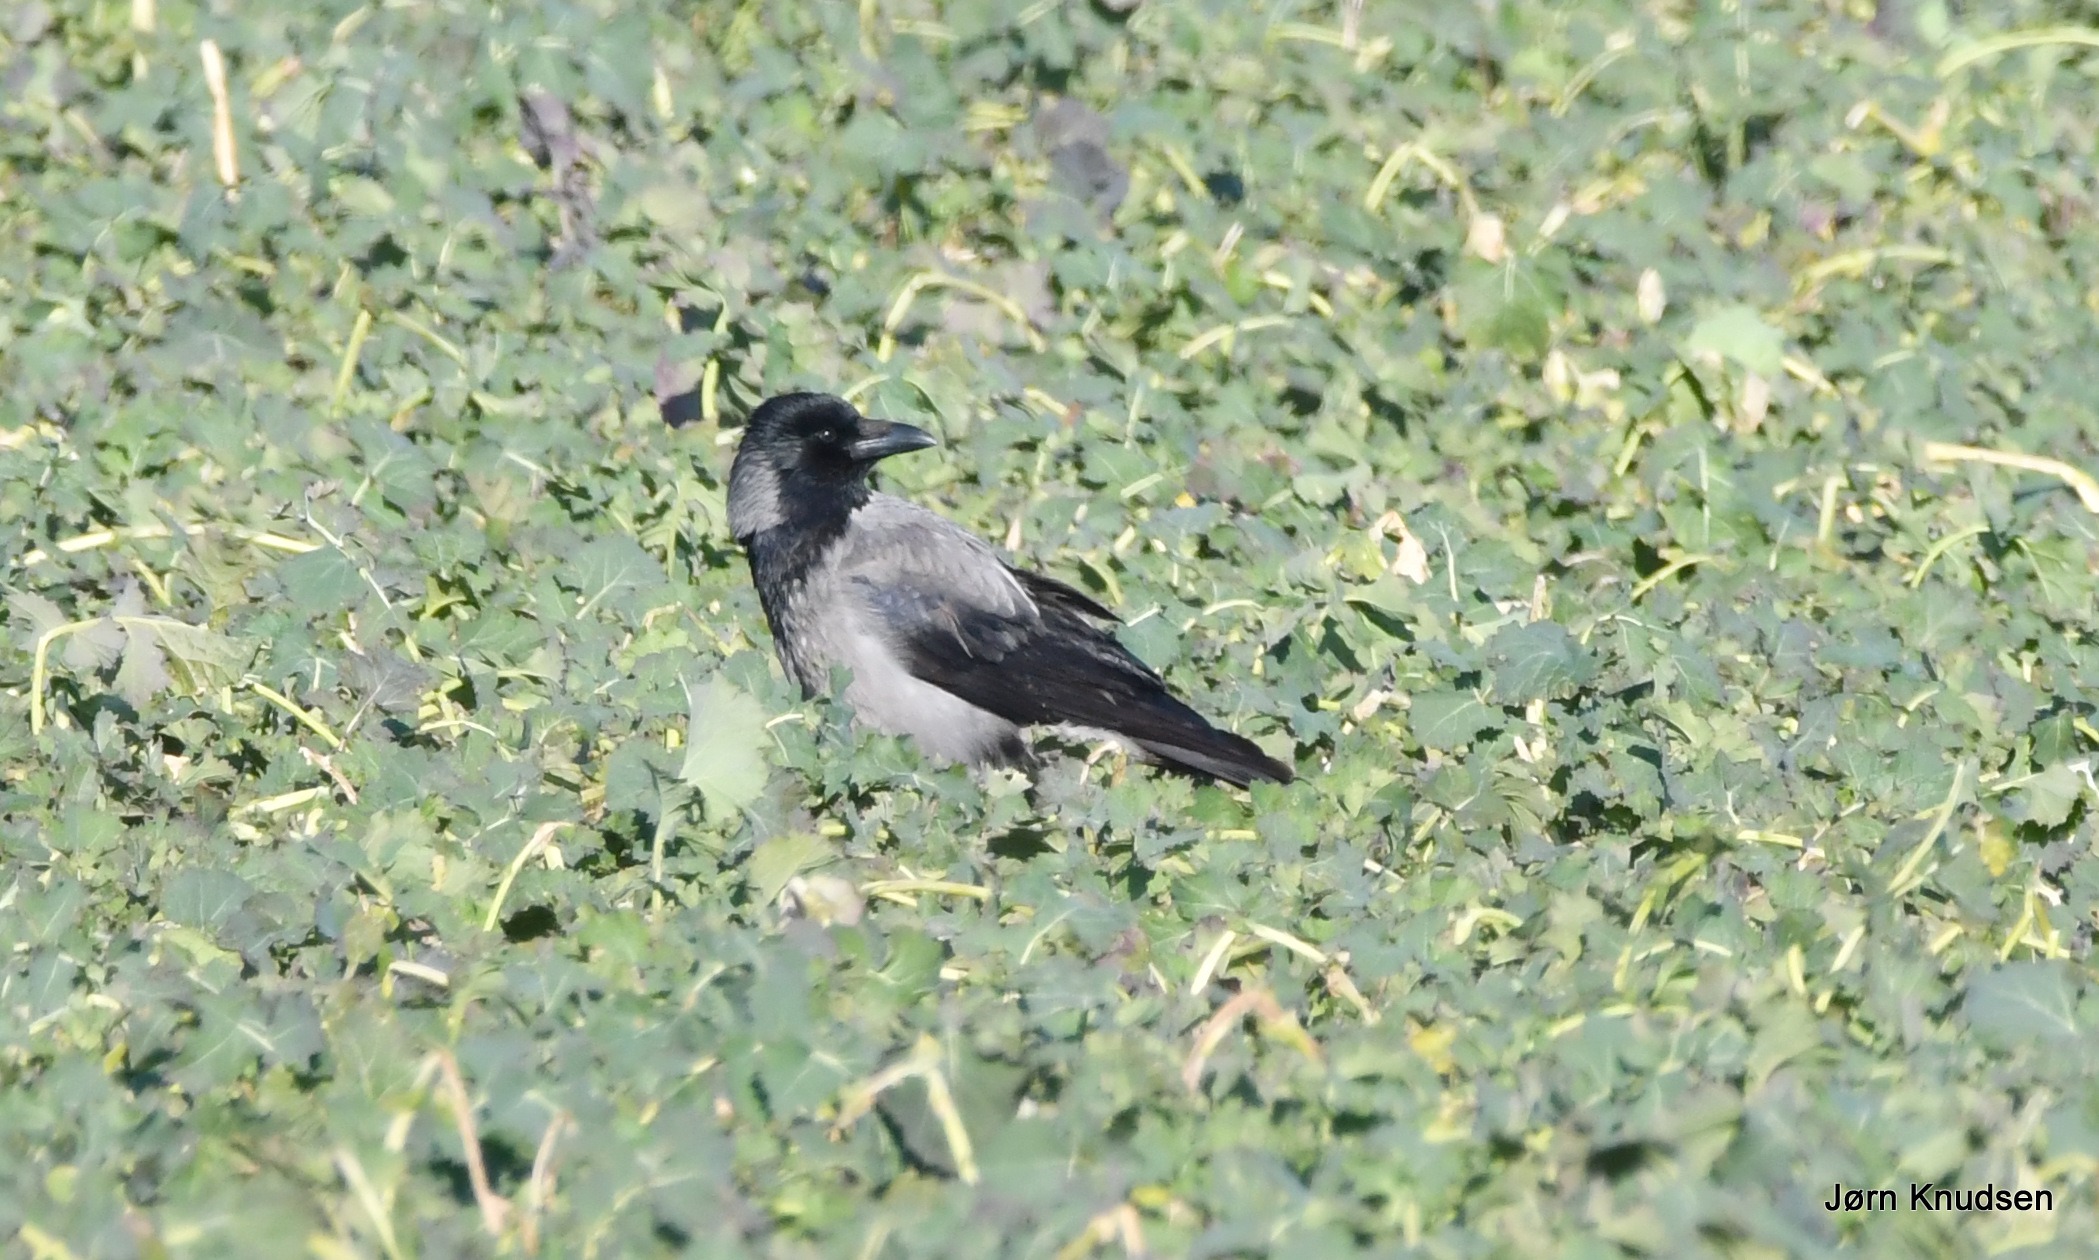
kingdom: Animalia
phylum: Chordata
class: Aves
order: Passeriformes
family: Corvidae
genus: Corvus
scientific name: Corvus cornix
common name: Gråkrage
